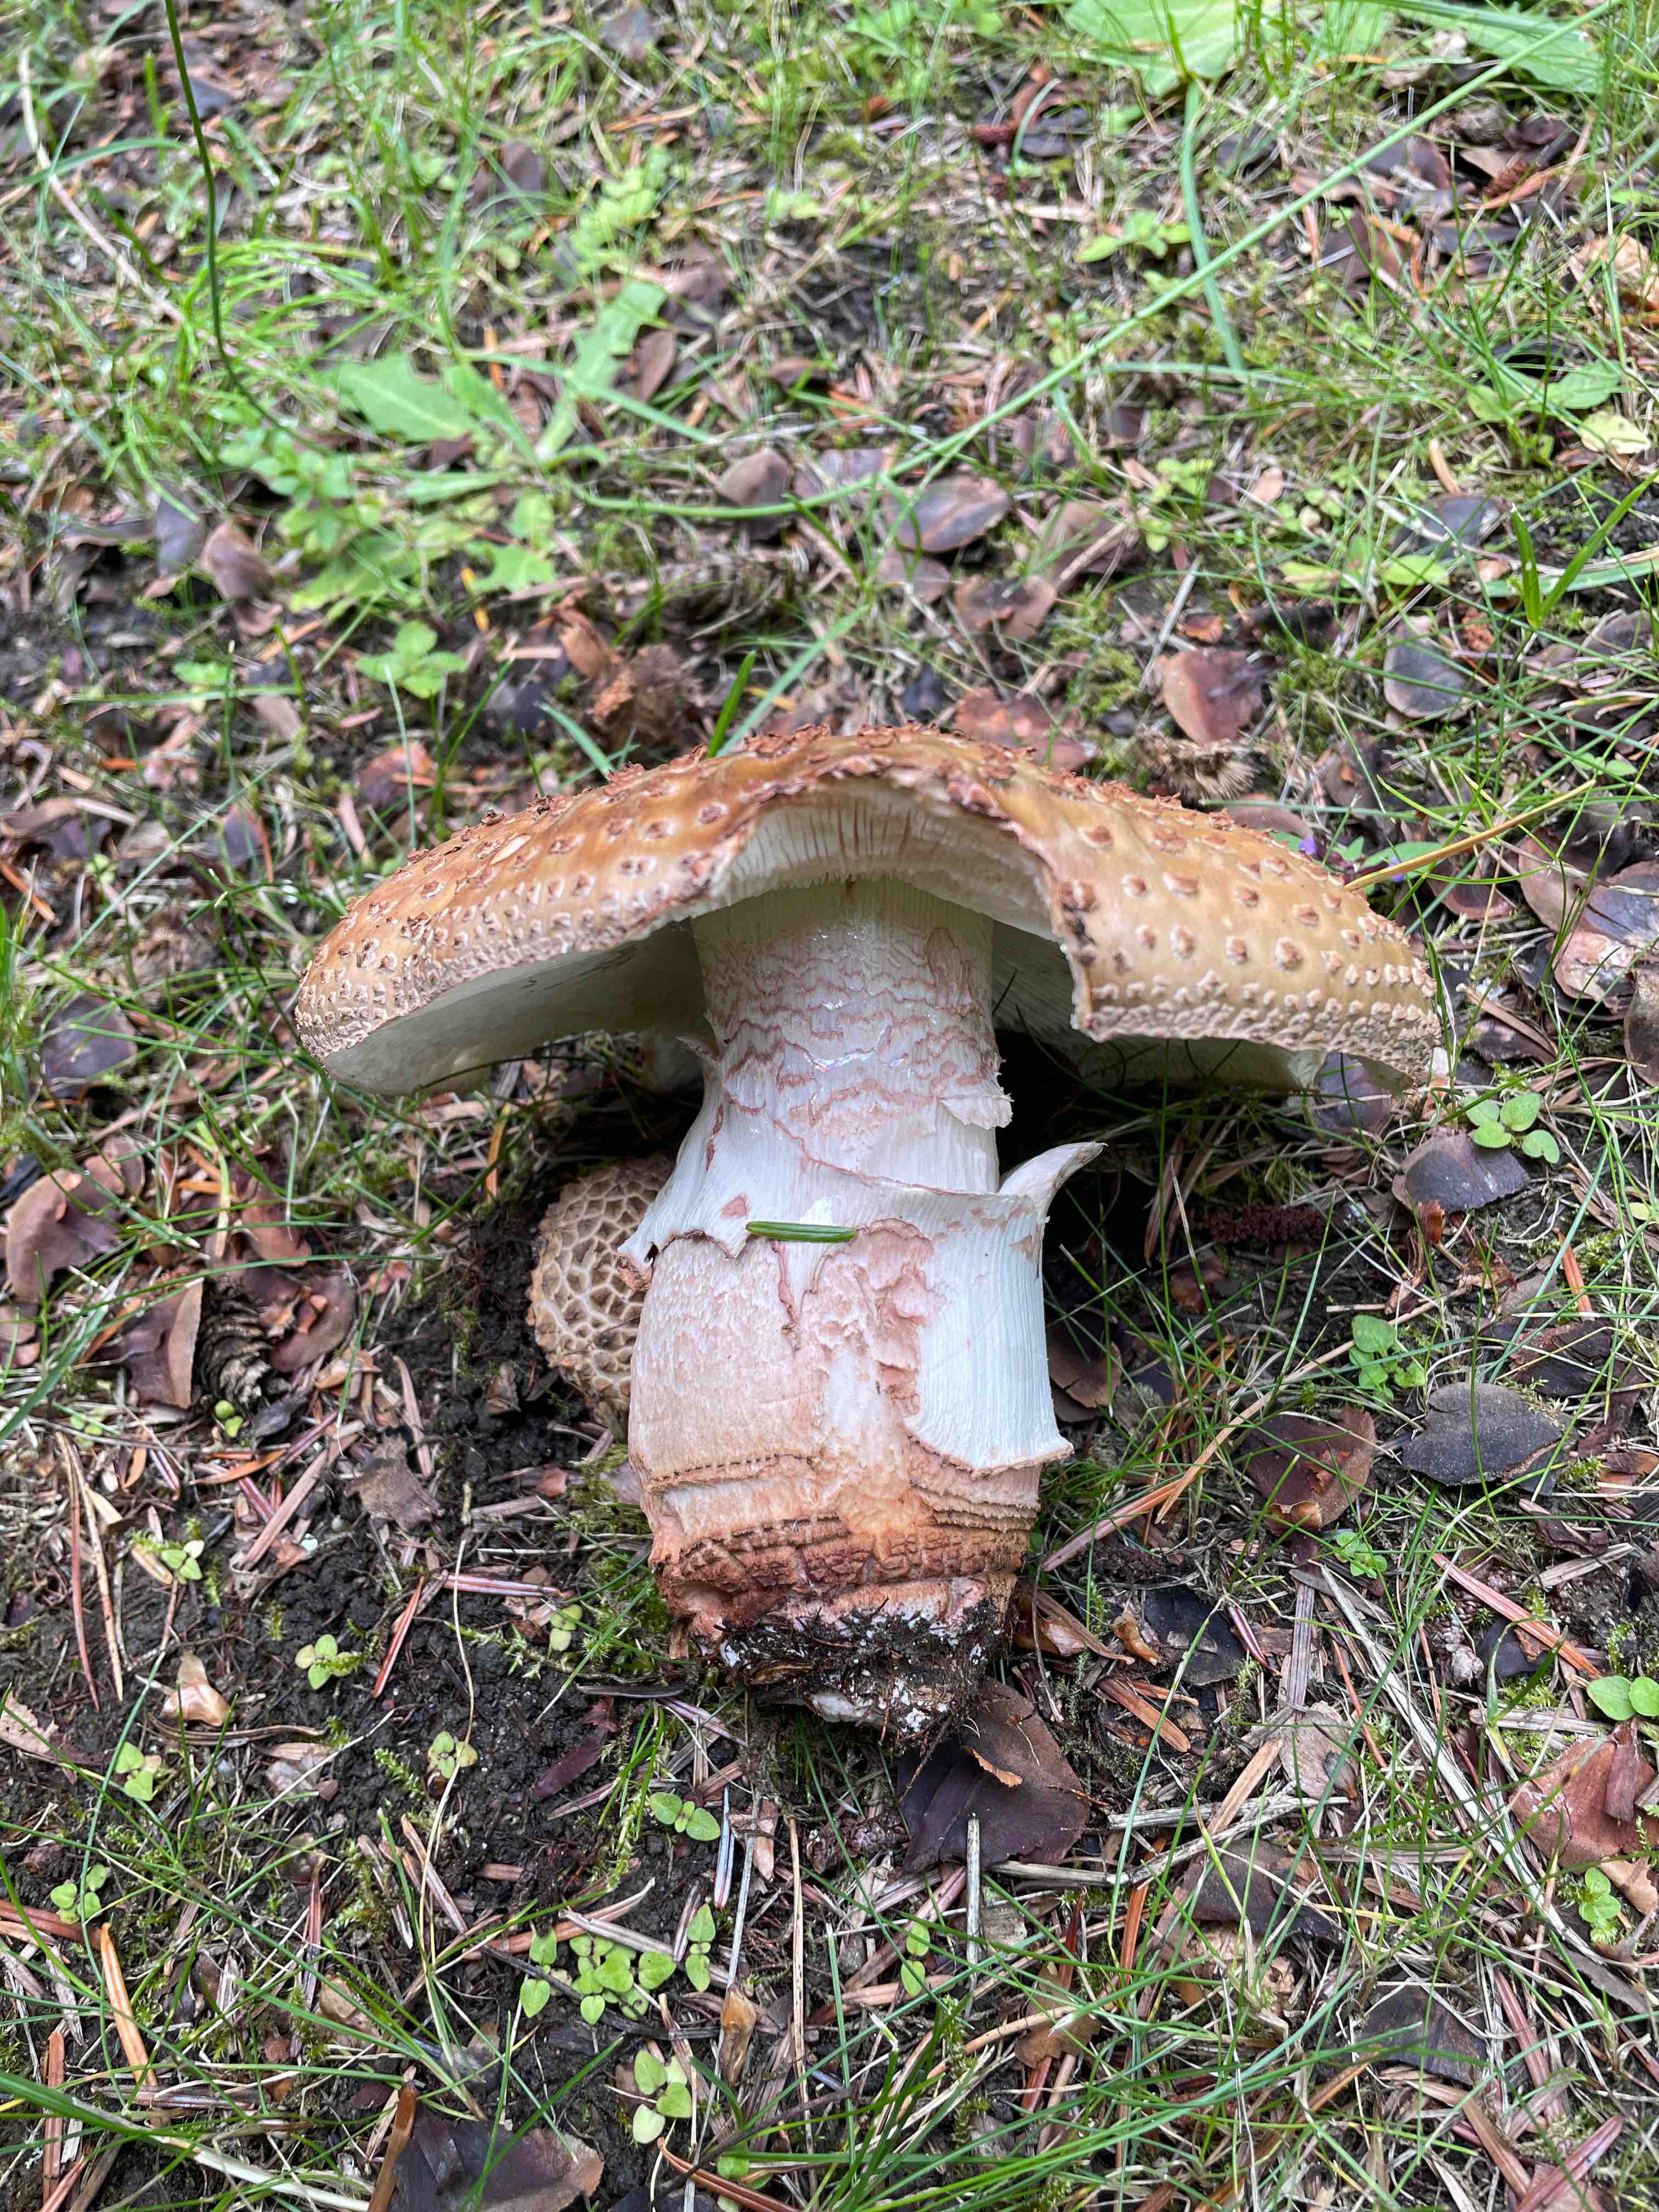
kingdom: Fungi
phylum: Basidiomycota
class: Agaricomycetes
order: Agaricales
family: Amanitaceae
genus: Amanita
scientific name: Amanita rubescens
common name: rødmende fluesvamp
